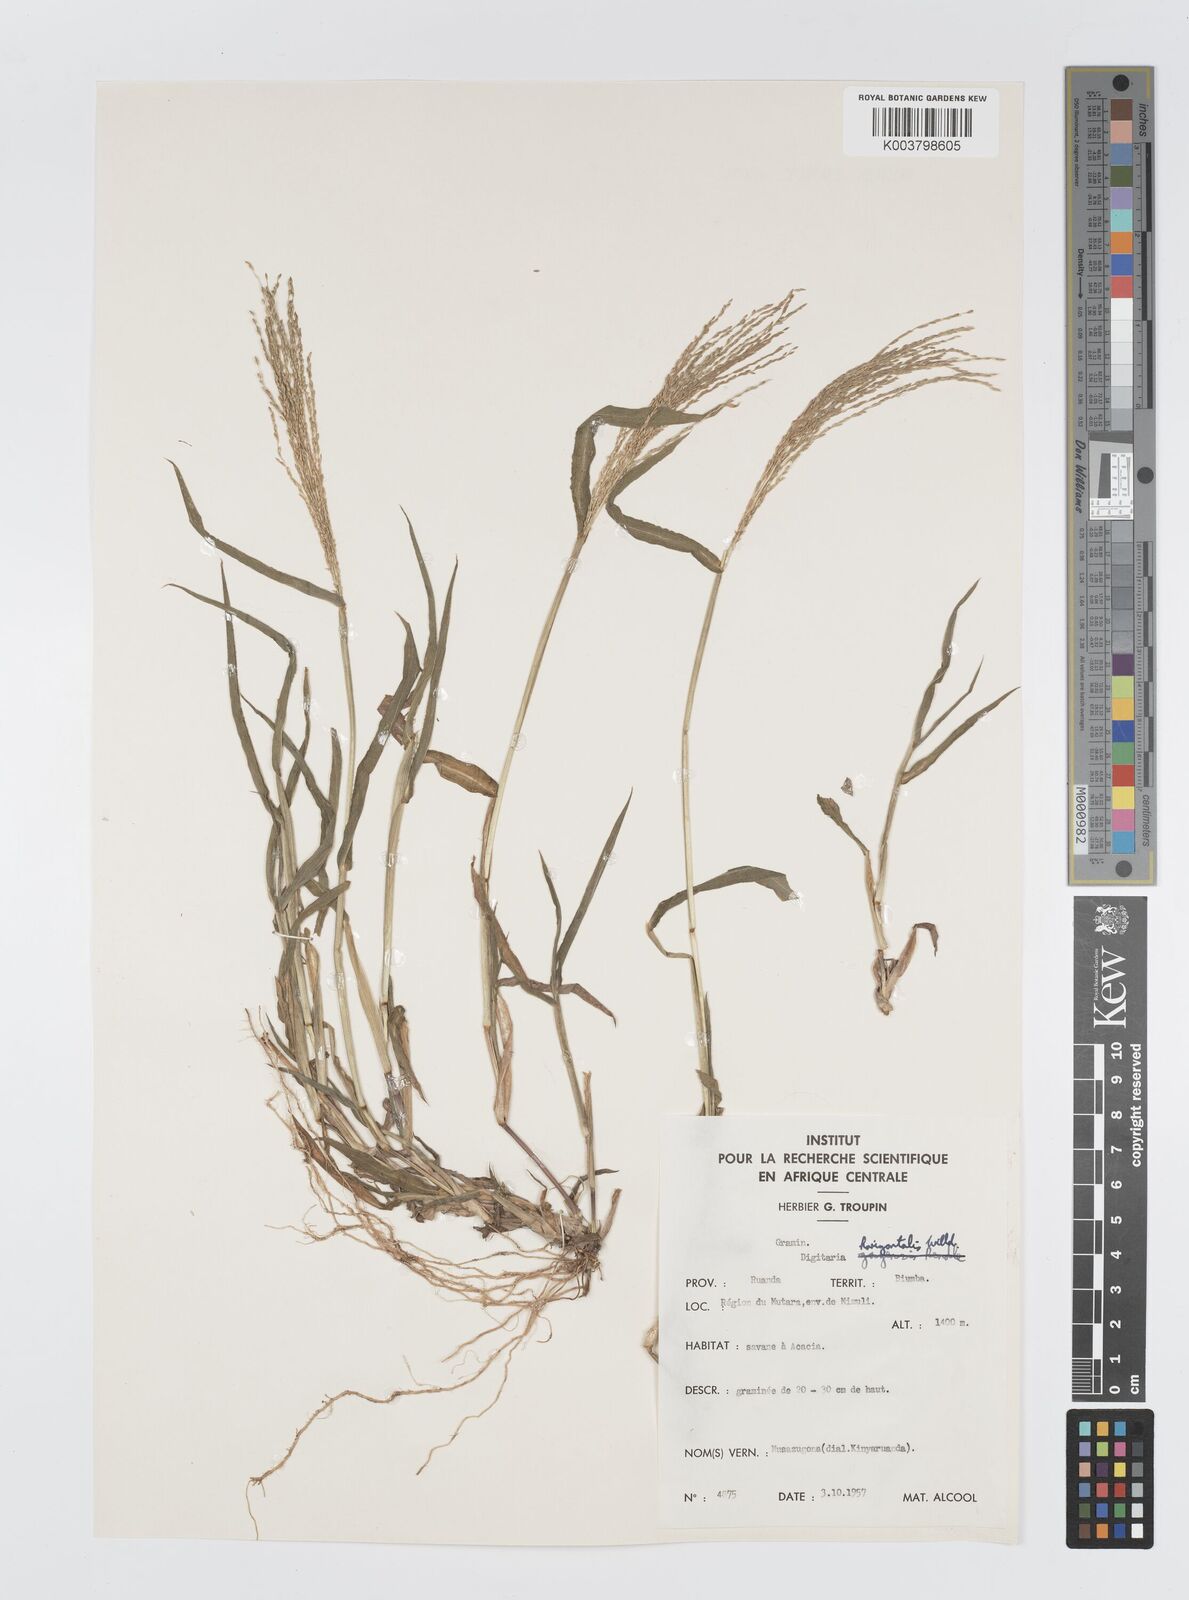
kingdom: Plantae
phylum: Tracheophyta
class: Liliopsida
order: Poales
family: Poaceae
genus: Digitaria
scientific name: Digitaria velutina
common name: Long-plume finger grass
